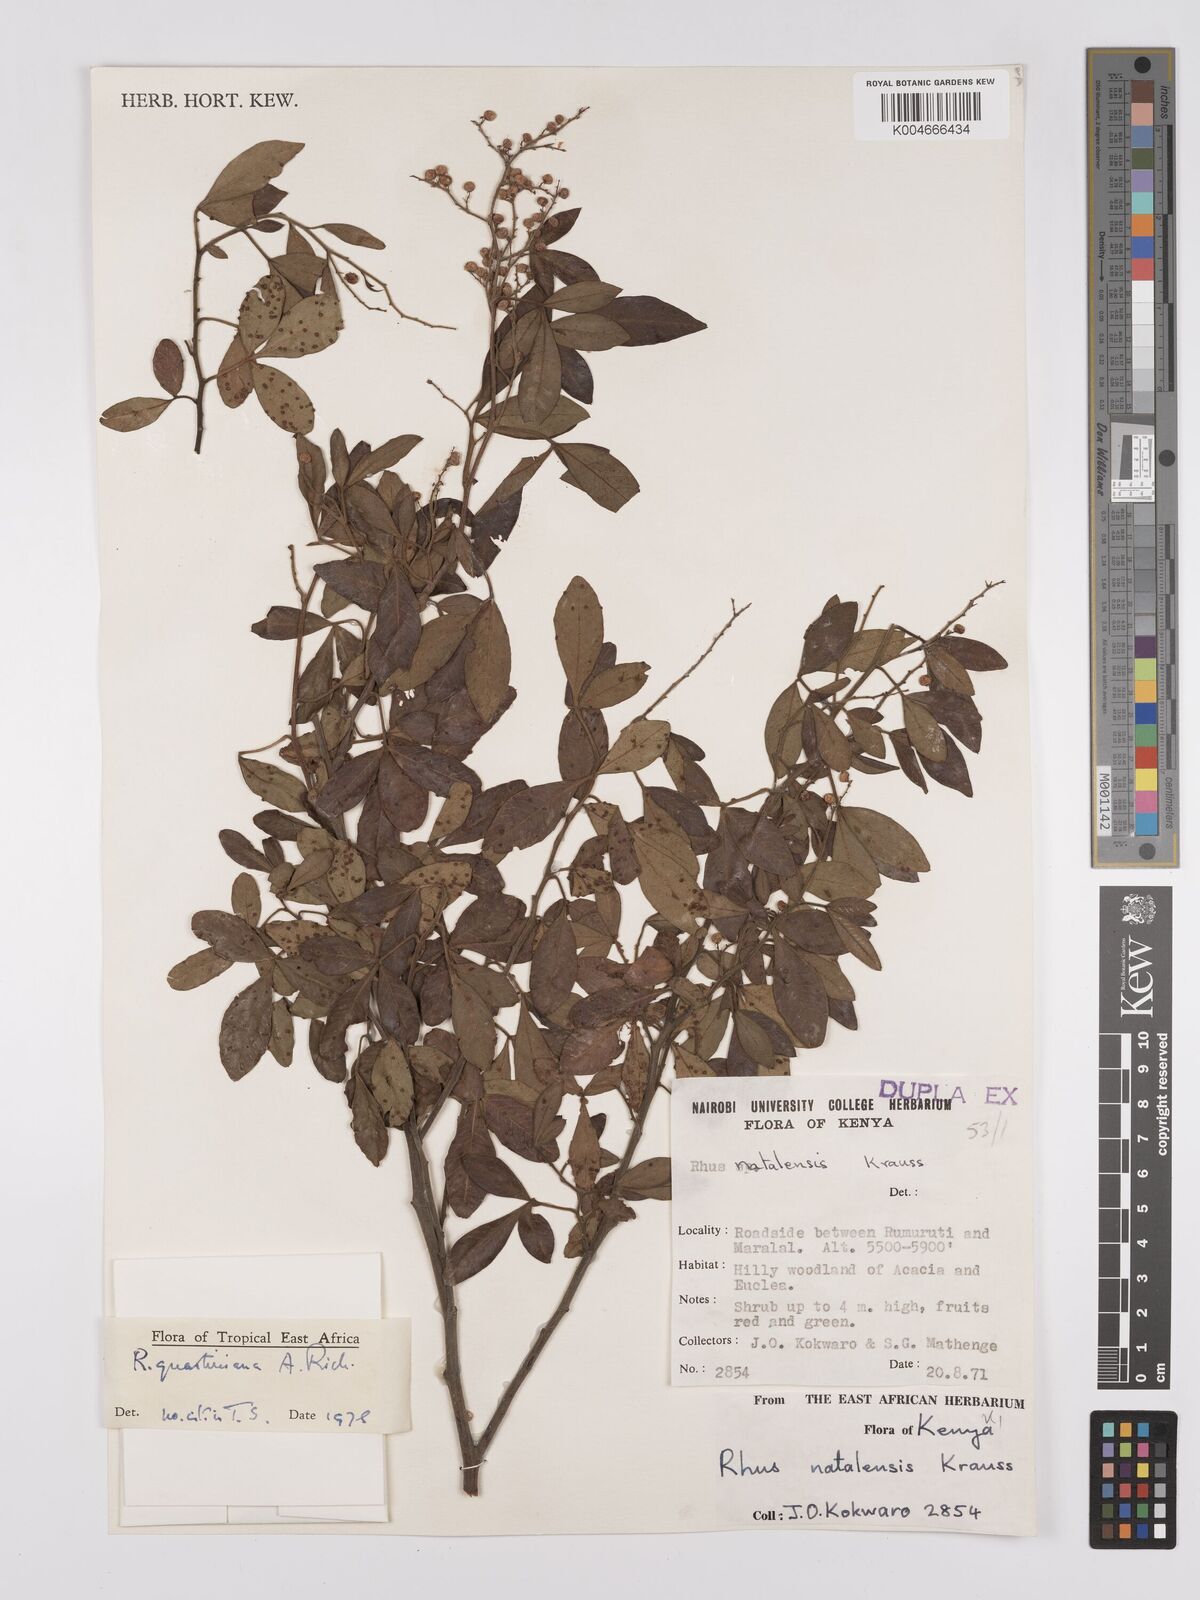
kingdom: Plantae
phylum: Tracheophyta
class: Magnoliopsida
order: Sapindales
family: Anacardiaceae
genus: Searsia
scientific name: Searsia quartiniana
